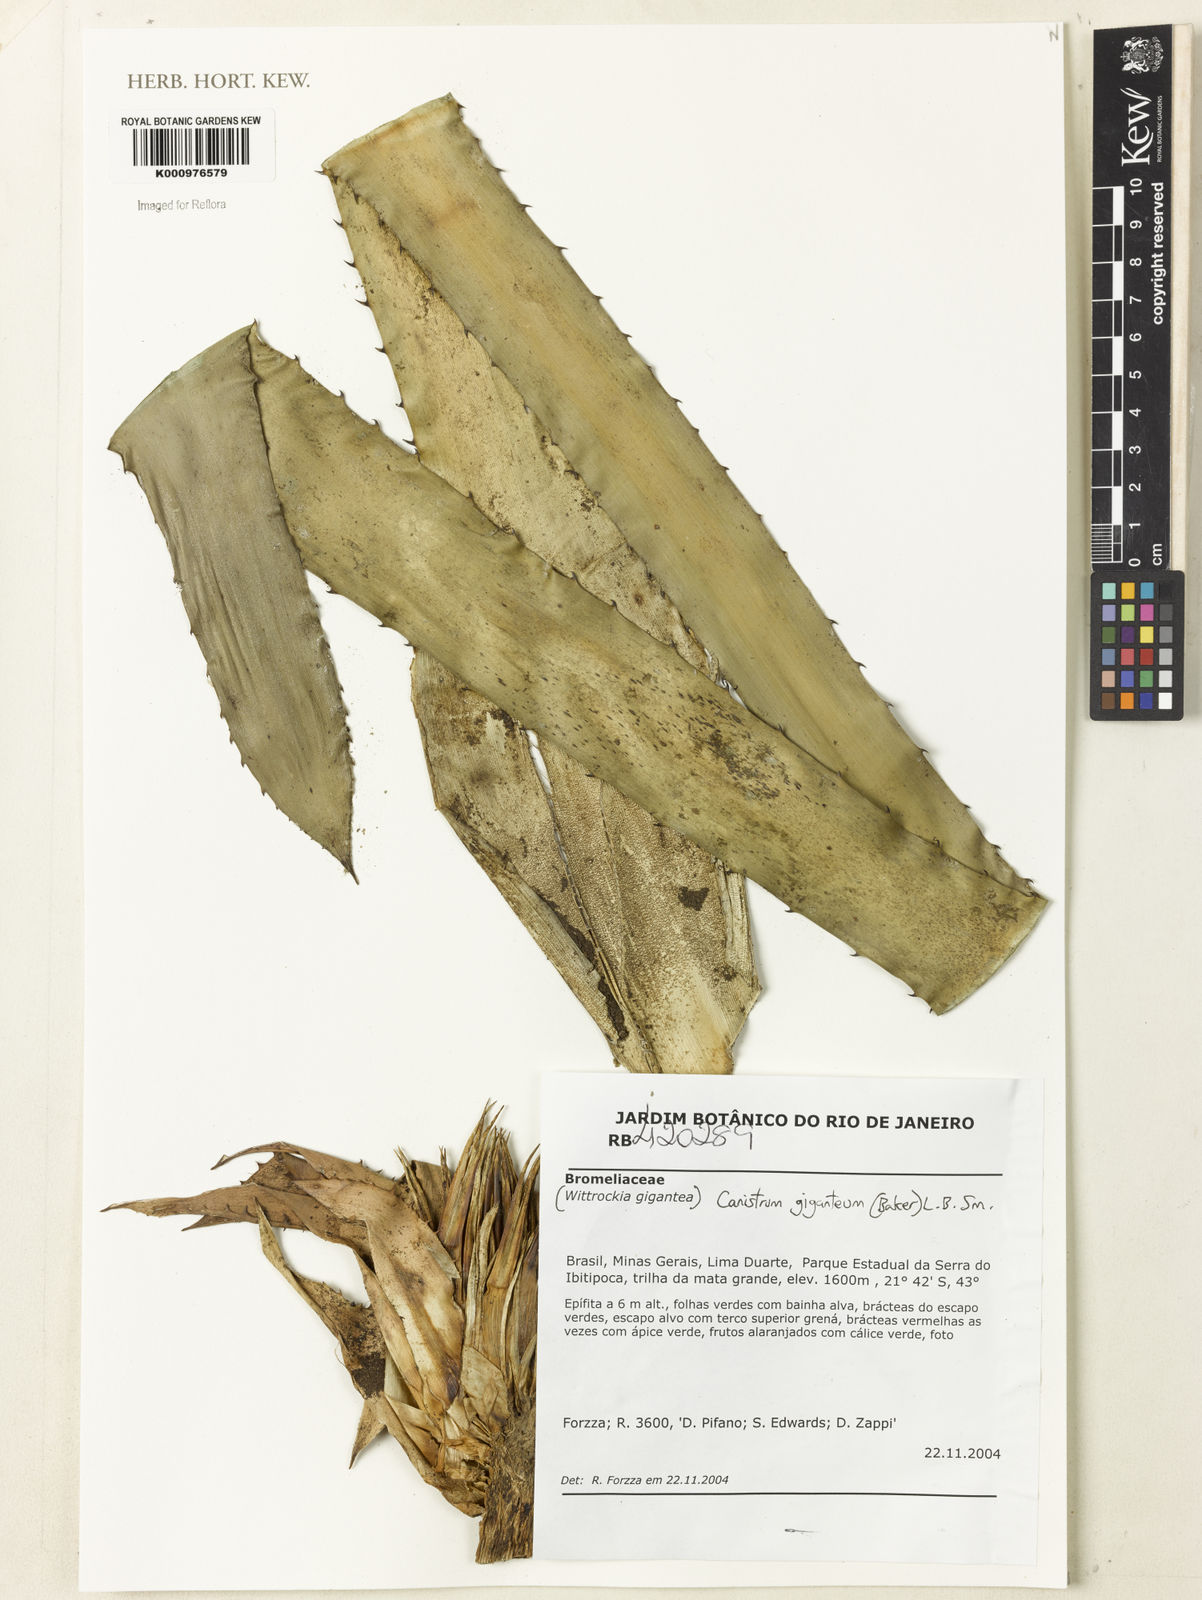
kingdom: Plantae
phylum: Tracheophyta
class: Liliopsida
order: Poales
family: Bromeliaceae
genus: Wittrockia
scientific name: Wittrockia gigantea
